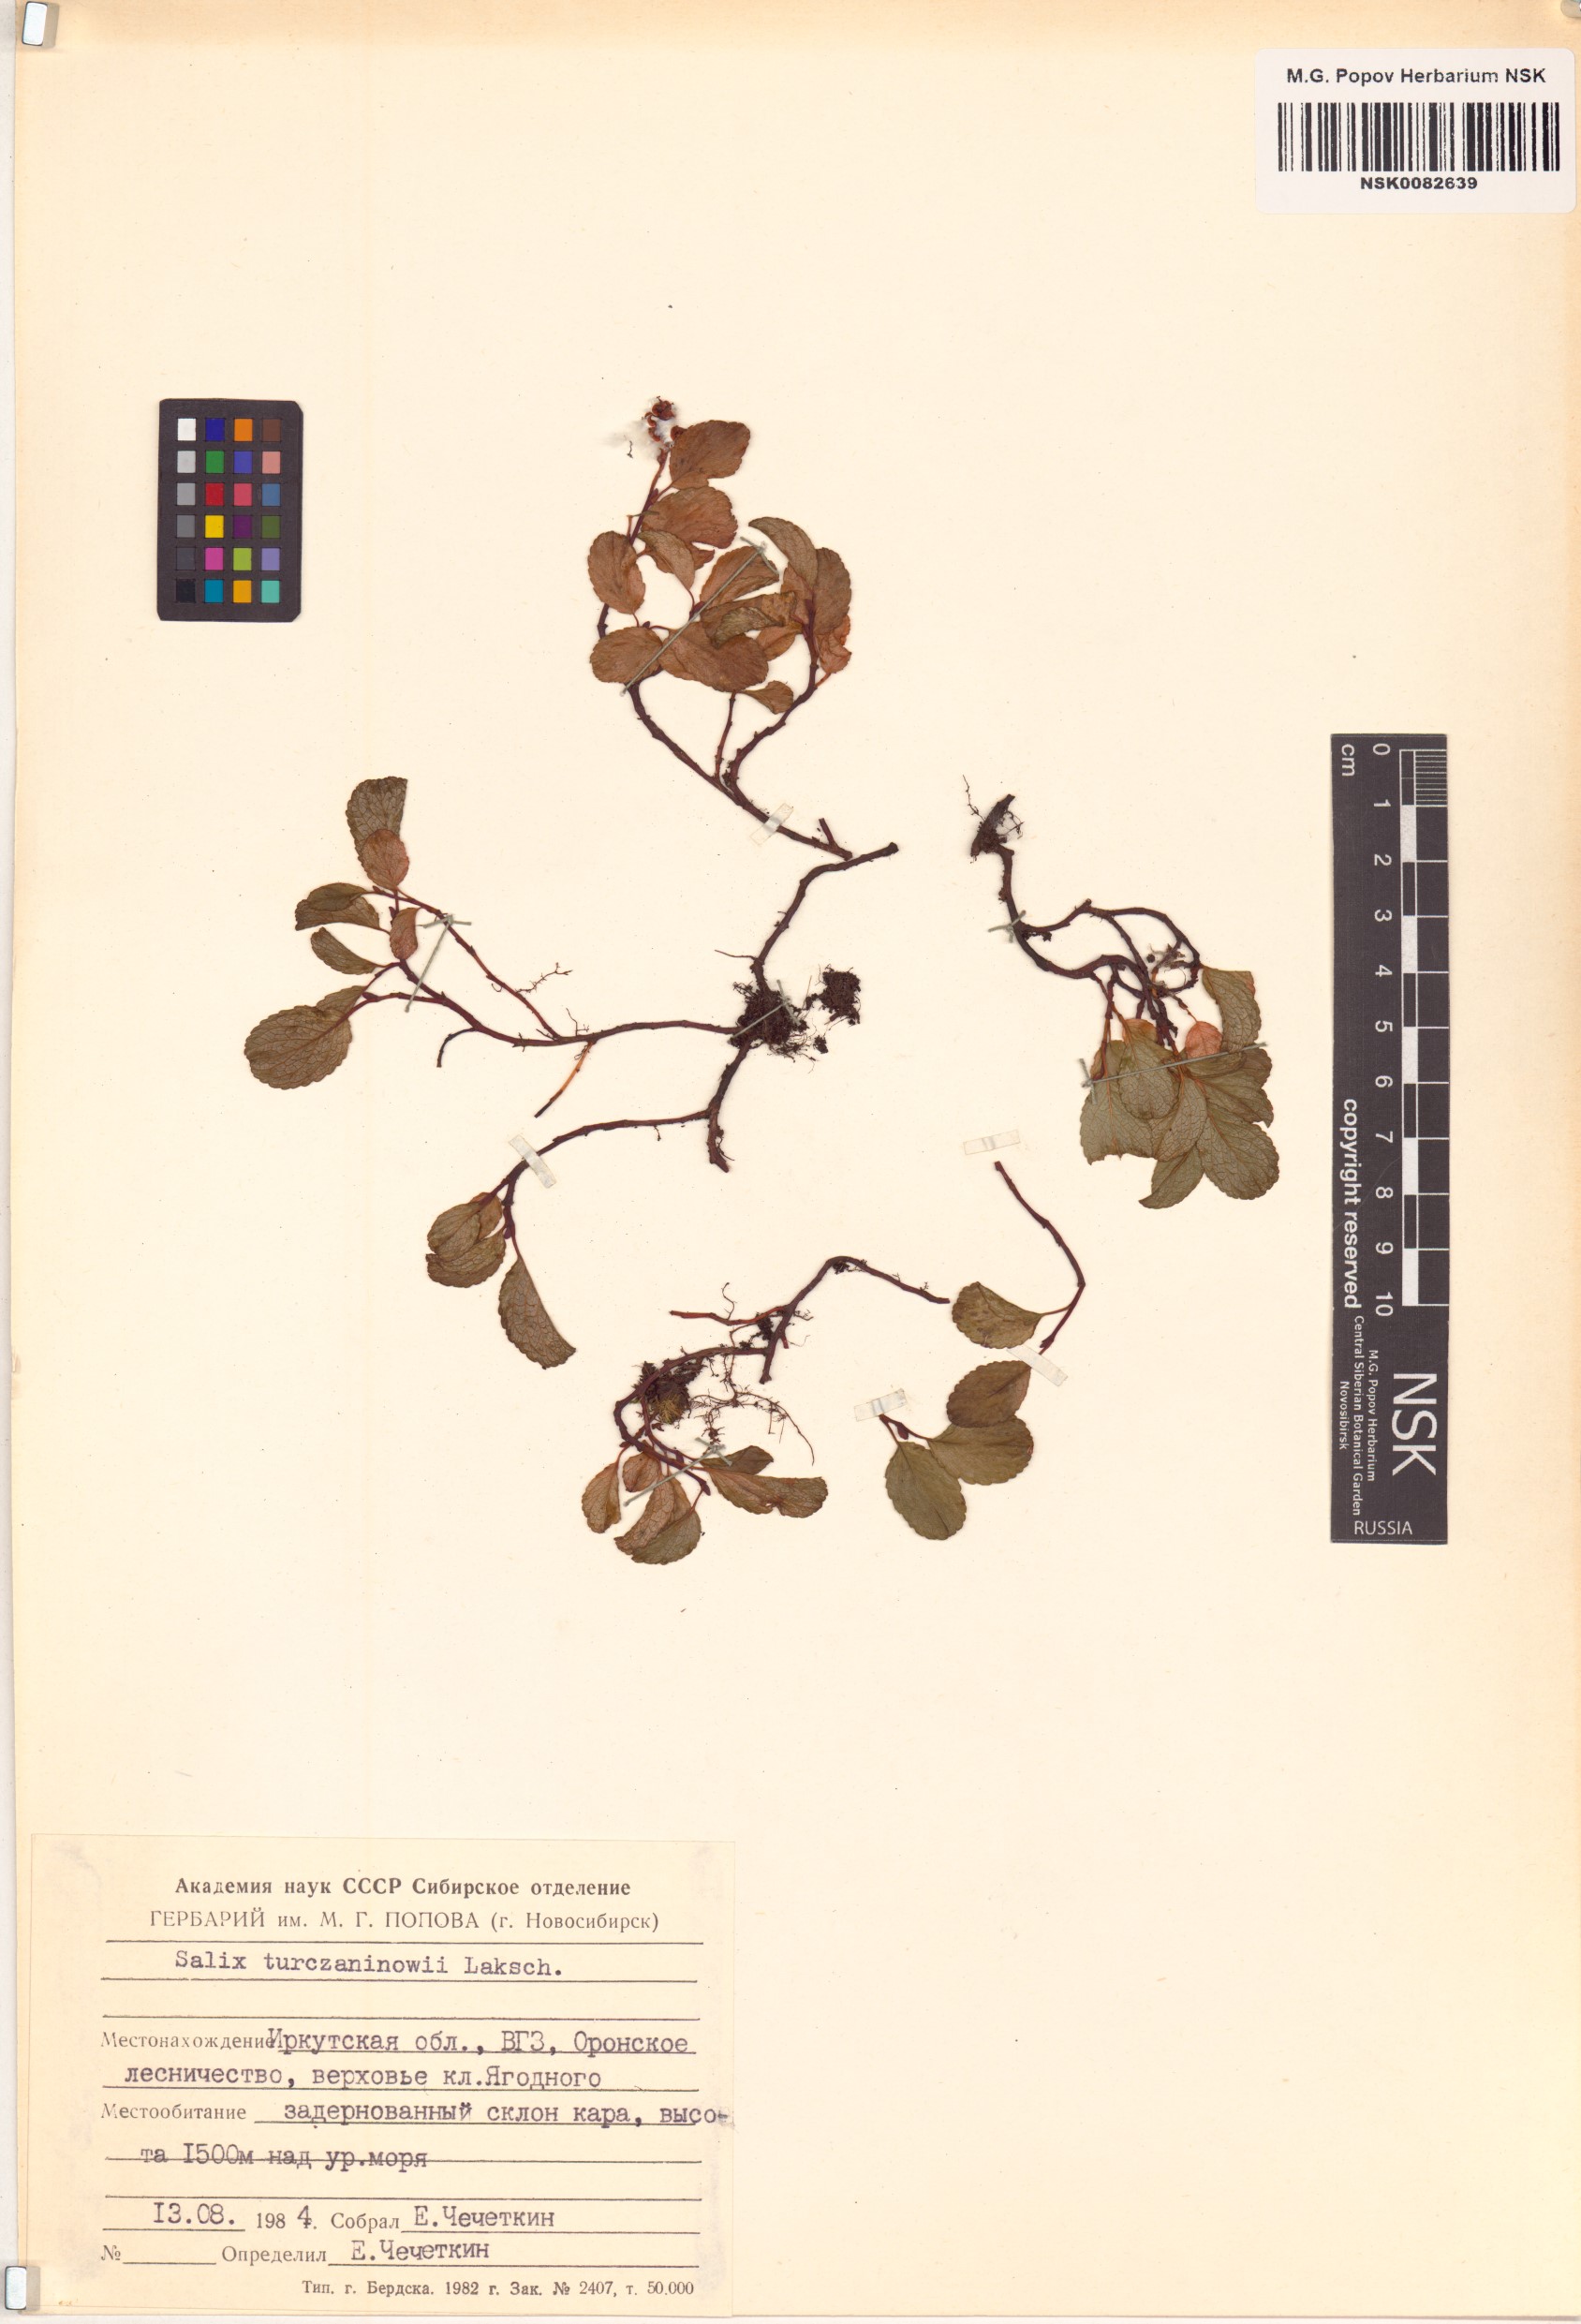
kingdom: Plantae
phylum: Tracheophyta
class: Magnoliopsida
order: Malpighiales
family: Salicaceae
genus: Salix
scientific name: Salix turczaninowii
